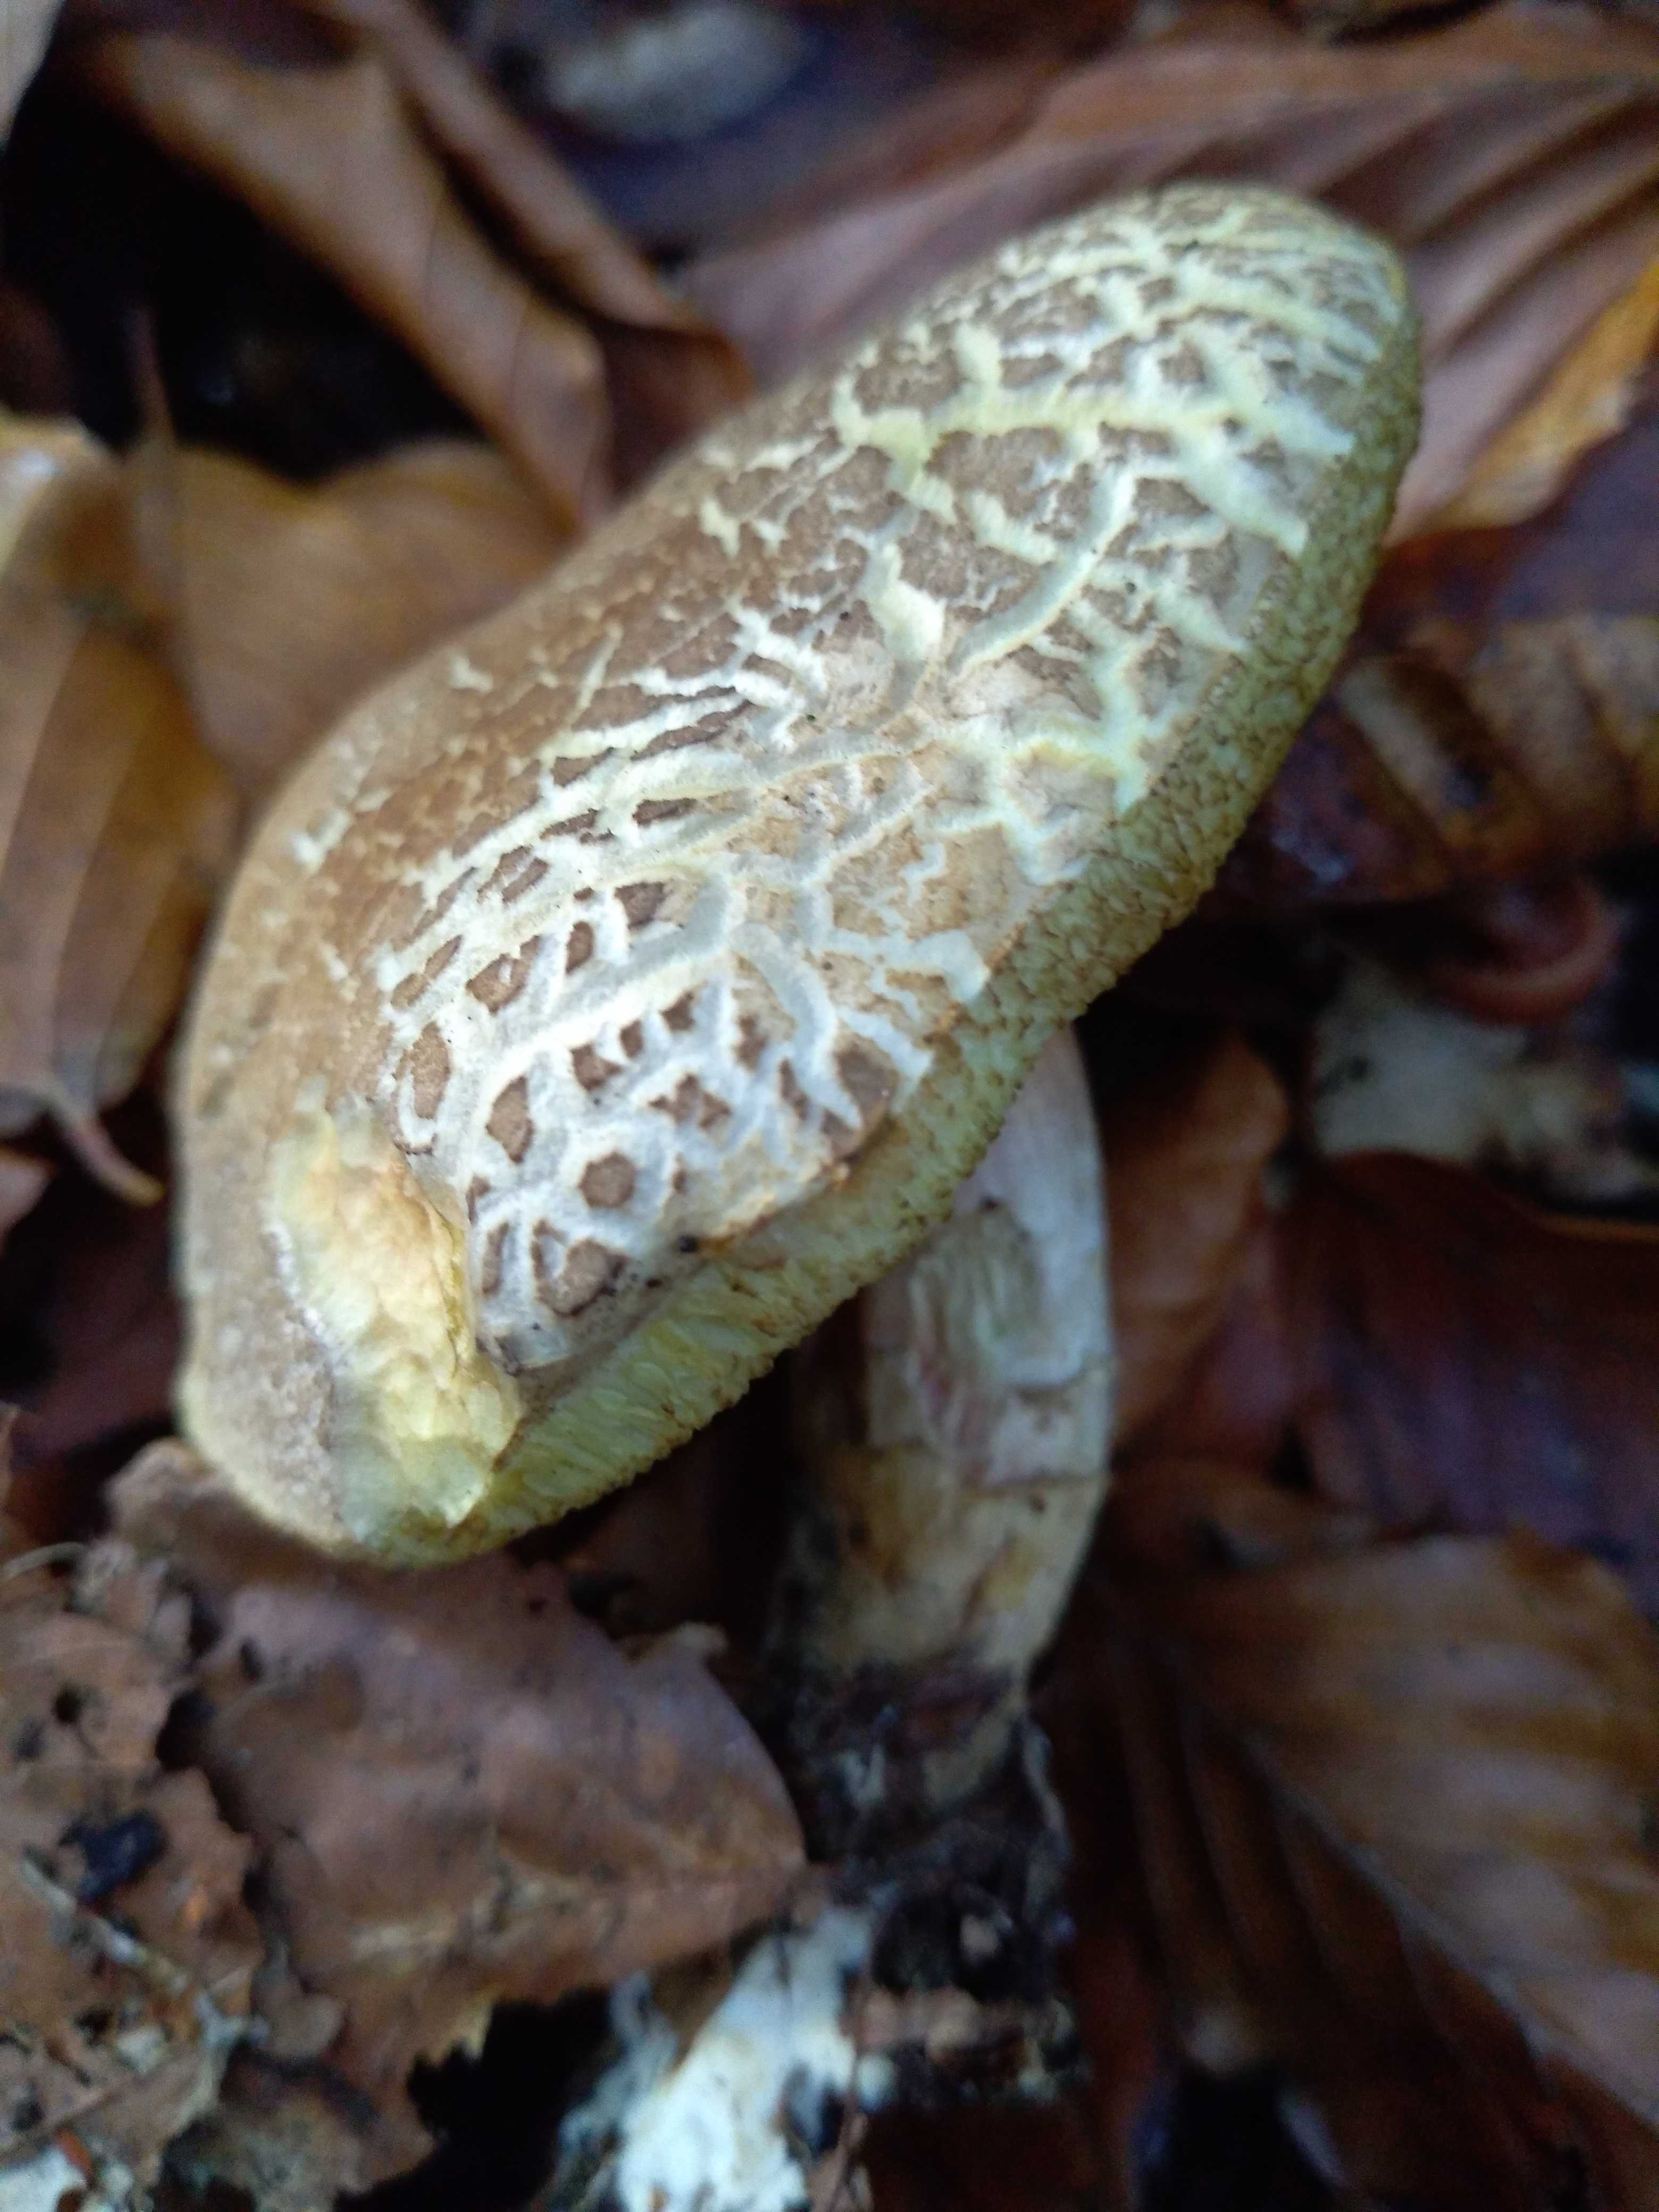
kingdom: Fungi
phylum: Basidiomycota
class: Agaricomycetes
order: Boletales
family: Boletaceae
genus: Xerocomellus
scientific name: Xerocomellus porosporus
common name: hvidsprukken rørhat
